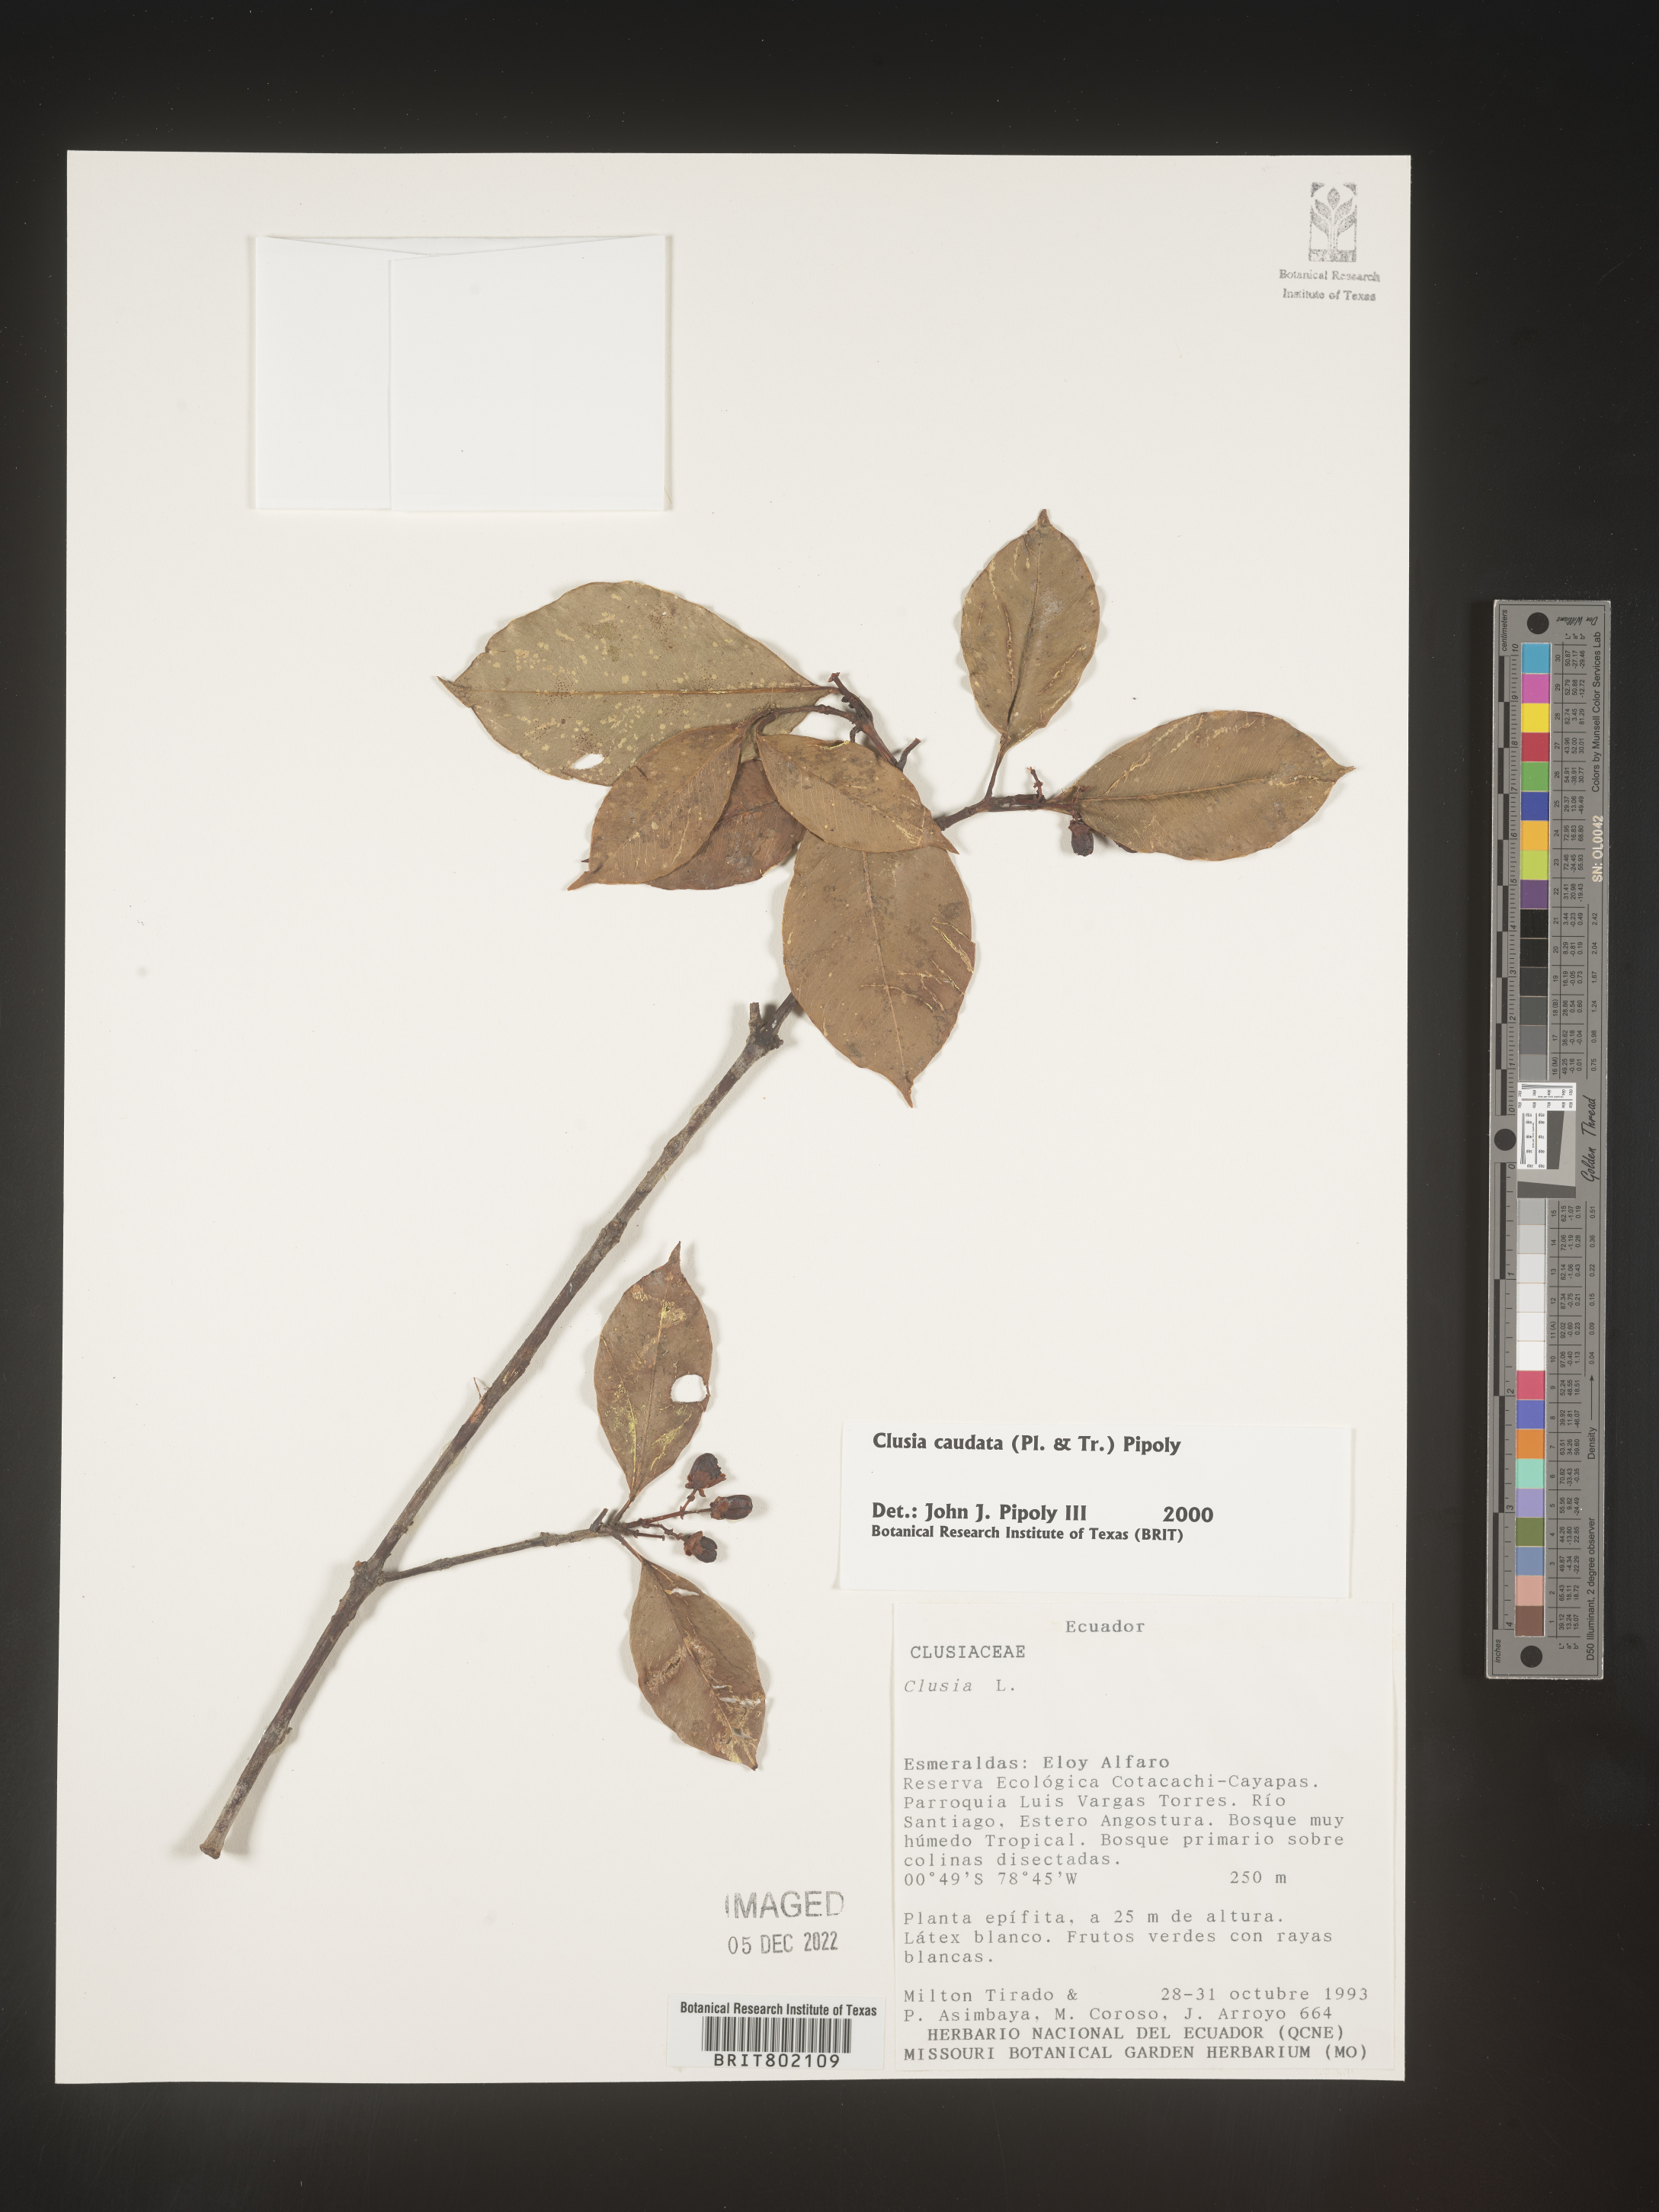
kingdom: Plantae
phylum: Tracheophyta
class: Magnoliopsida
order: Malpighiales
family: Clusiaceae
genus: Clusia
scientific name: Clusia
